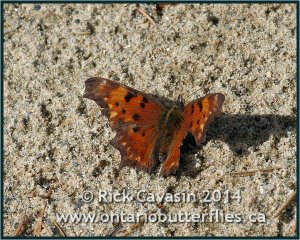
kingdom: Animalia
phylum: Arthropoda
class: Insecta
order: Lepidoptera
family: Nymphalidae
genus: Polygonia
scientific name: Polygonia gracilis
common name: Hoary Comma
